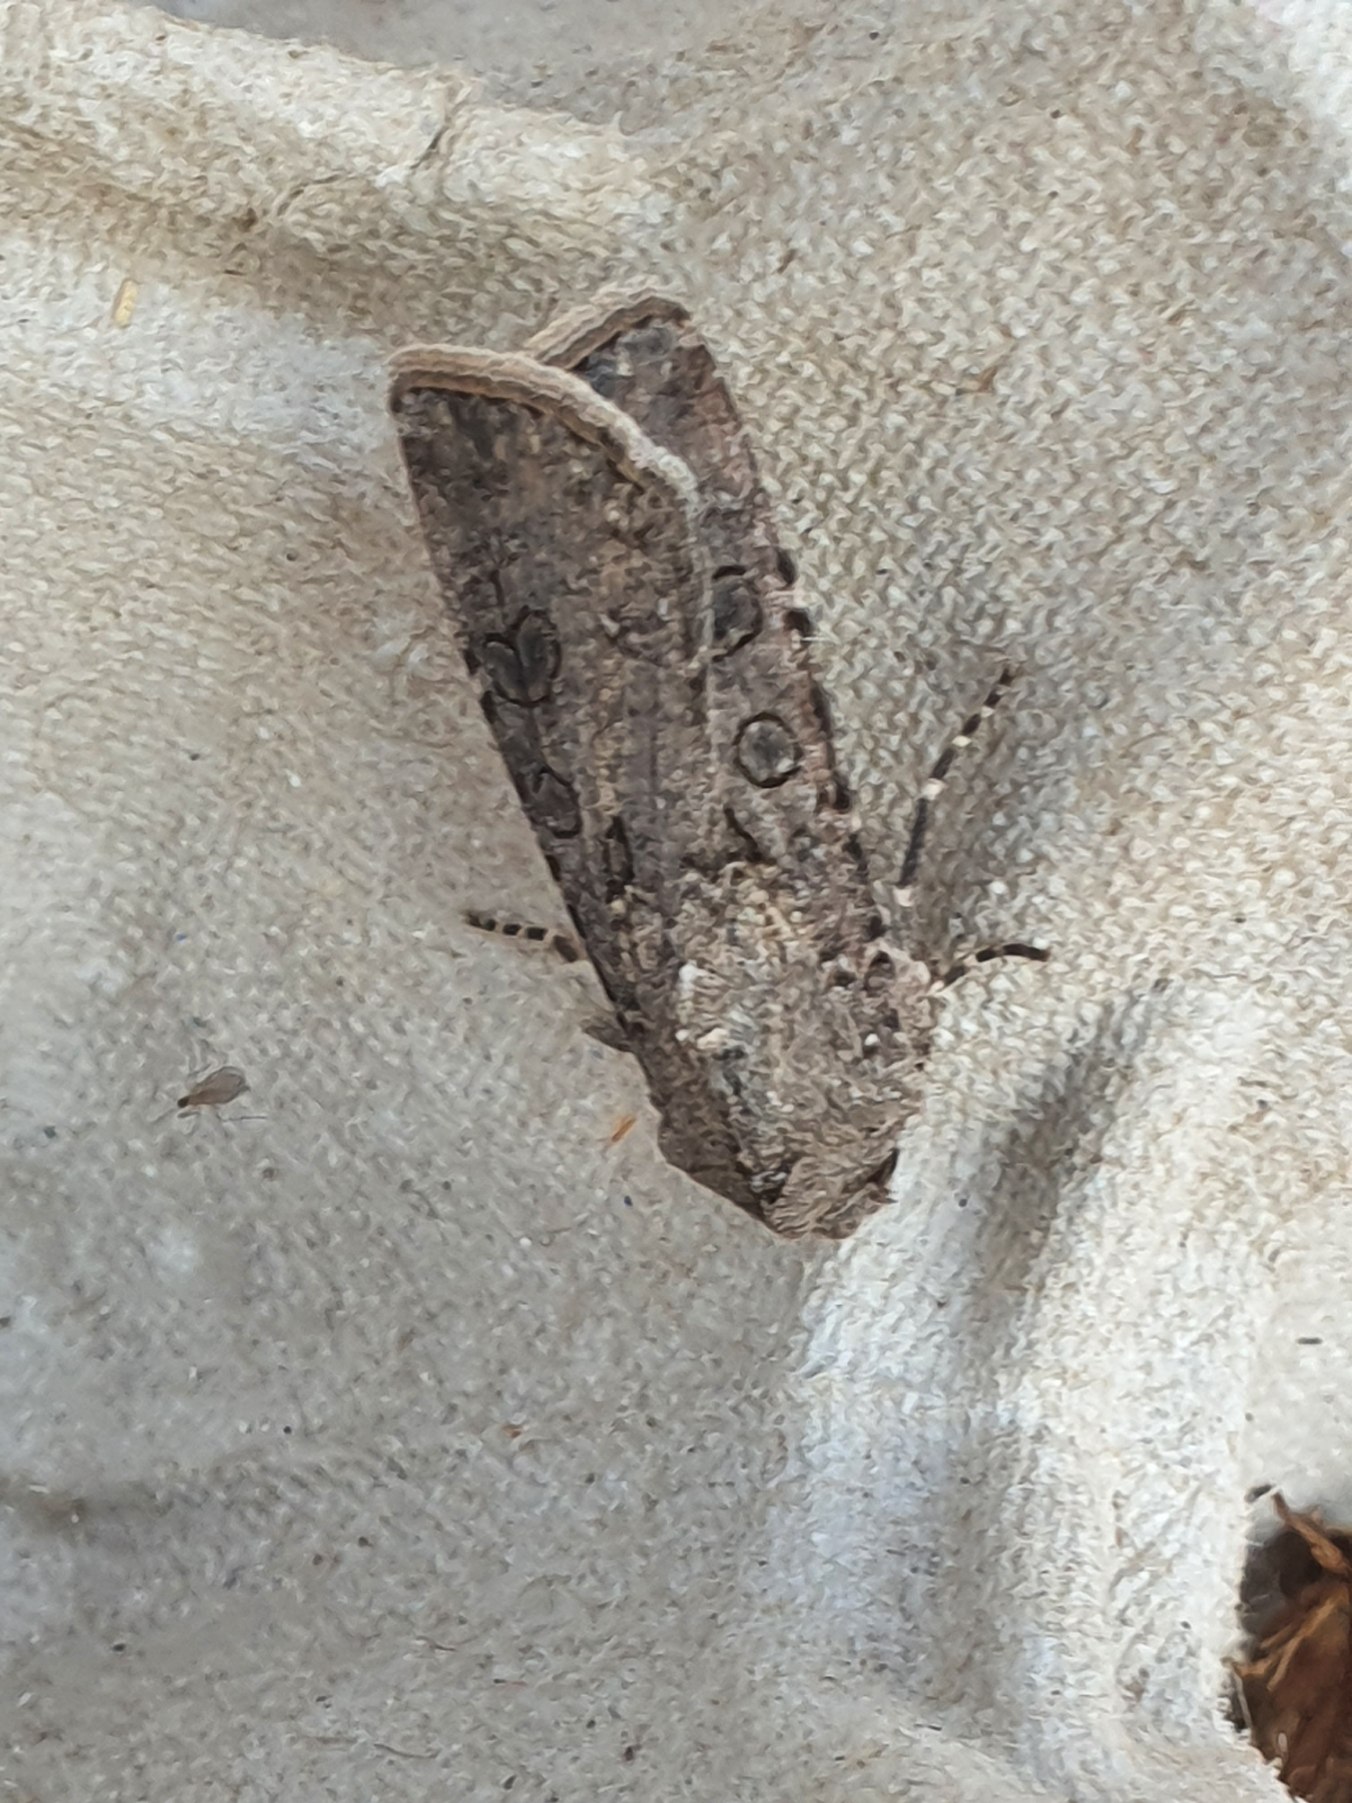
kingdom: Animalia
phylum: Arthropoda
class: Insecta
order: Lepidoptera
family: Noctuidae
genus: Agrotis
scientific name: Agrotis segetum
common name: Agerugle
